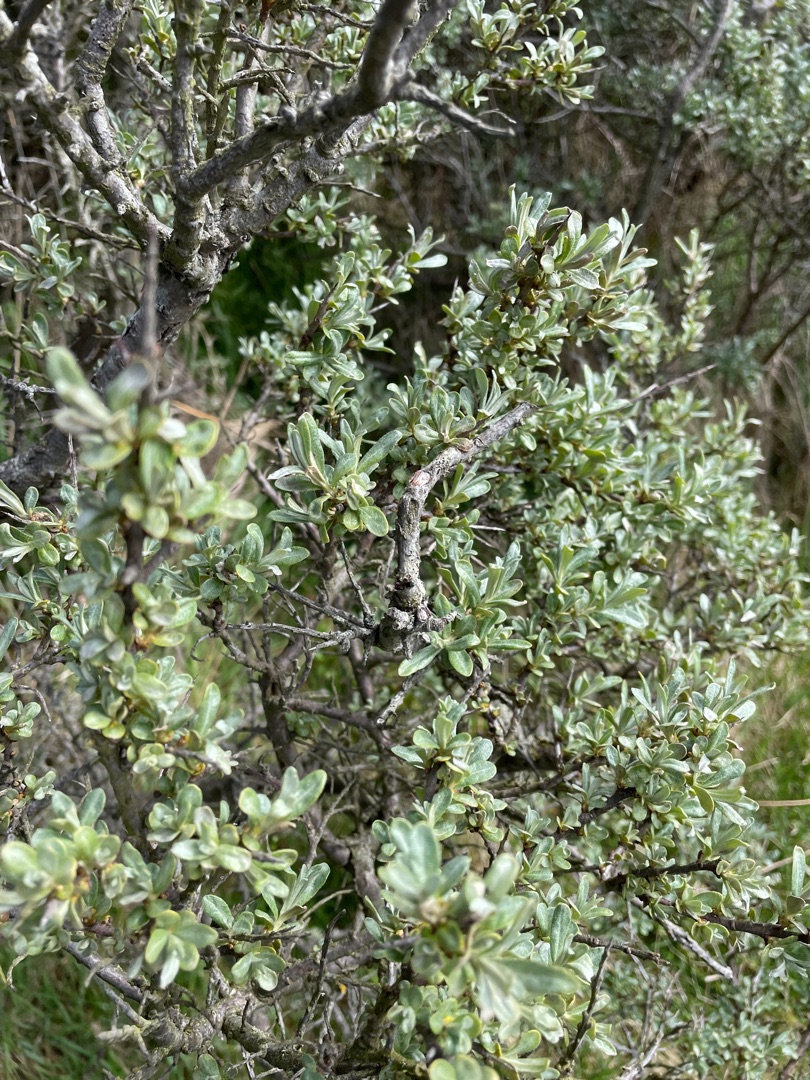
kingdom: Plantae
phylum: Tracheophyta
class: Magnoliopsida
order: Rosales
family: Elaeagnaceae
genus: Hippophae
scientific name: Hippophae rhamnoides
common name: Havtorn
